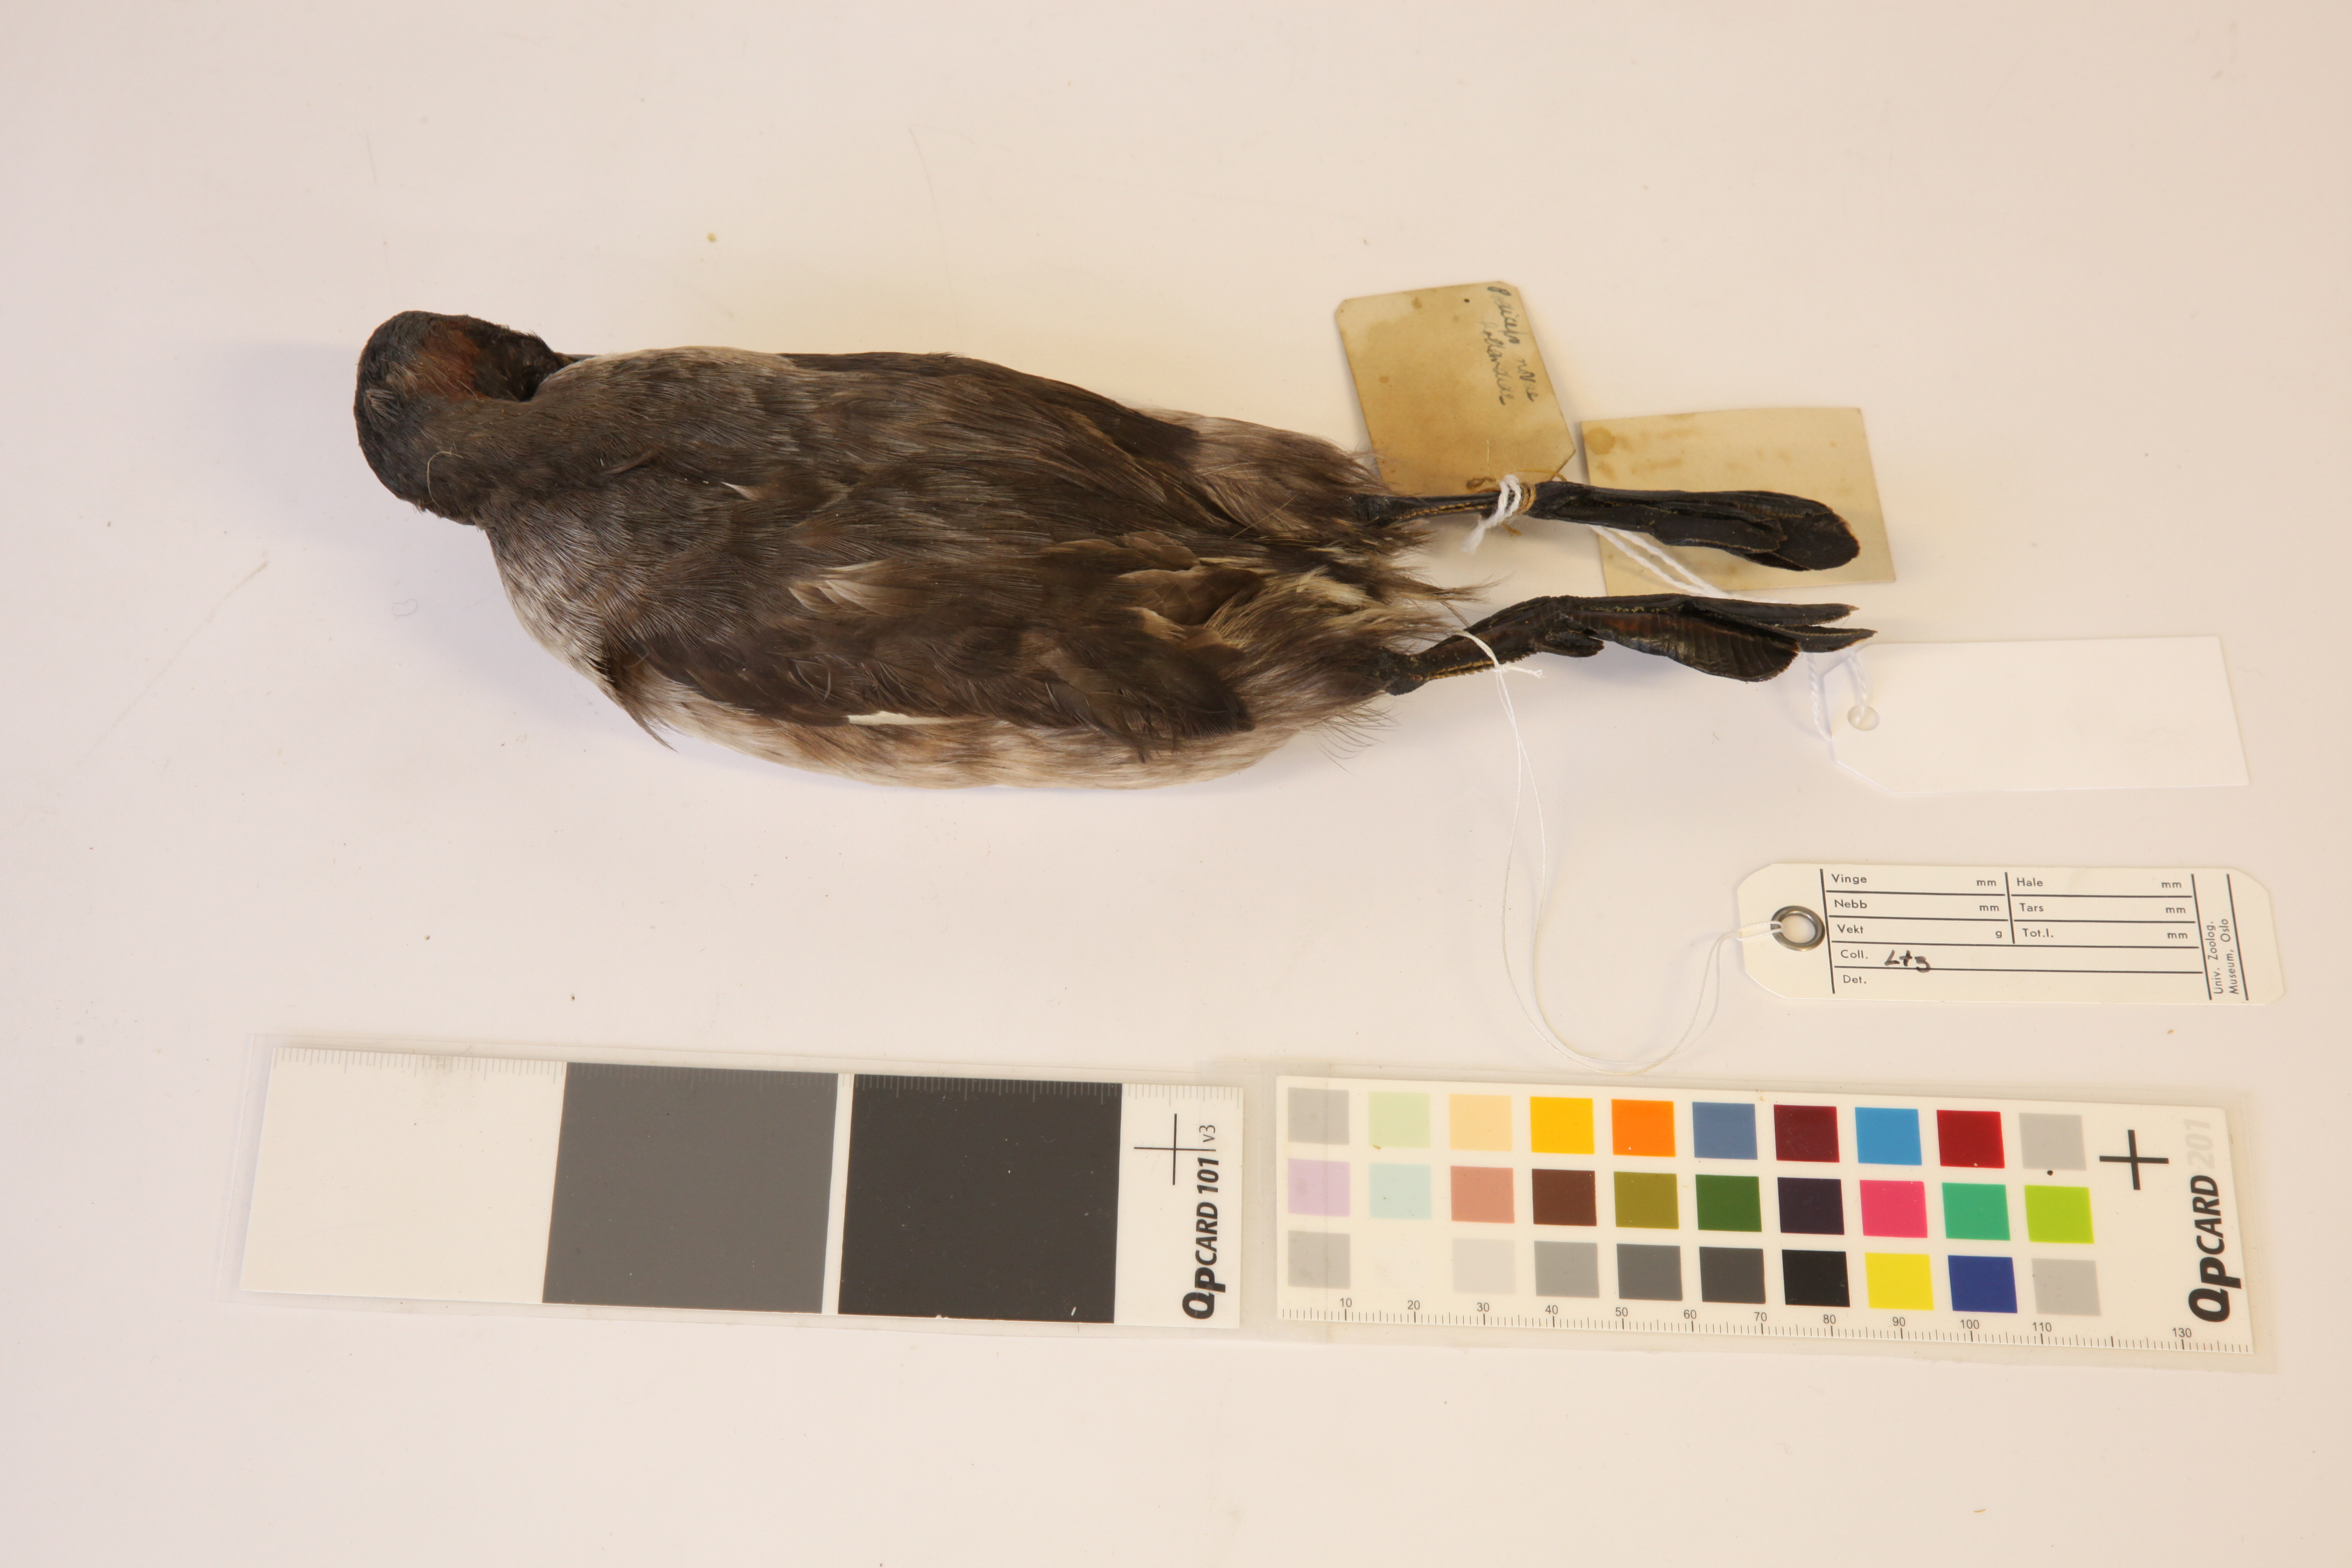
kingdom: Animalia
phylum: Chordata
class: Aves
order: Podicipediformes
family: Podicipedidae
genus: Tachybaptus
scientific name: Tachybaptus novaehollandiae
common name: Australasian grebe
